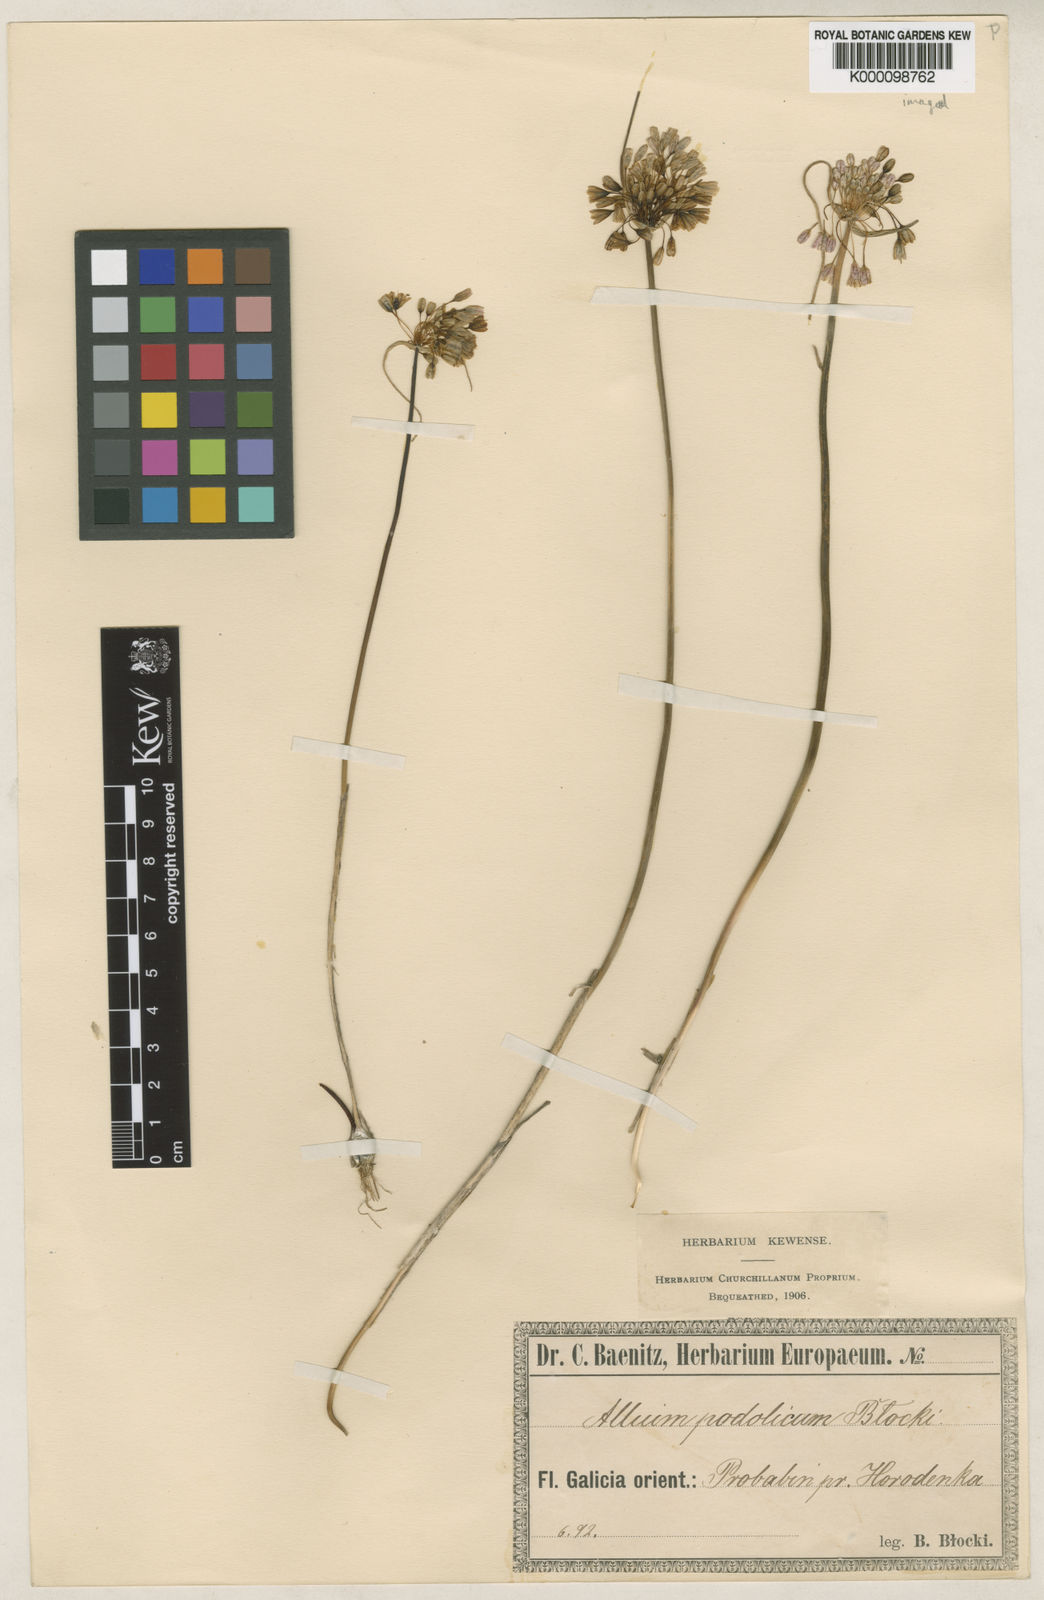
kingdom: Plantae
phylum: Tracheophyta
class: Liliopsida
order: Asparagales
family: Amaryllidaceae
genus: Allium
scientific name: Allium
